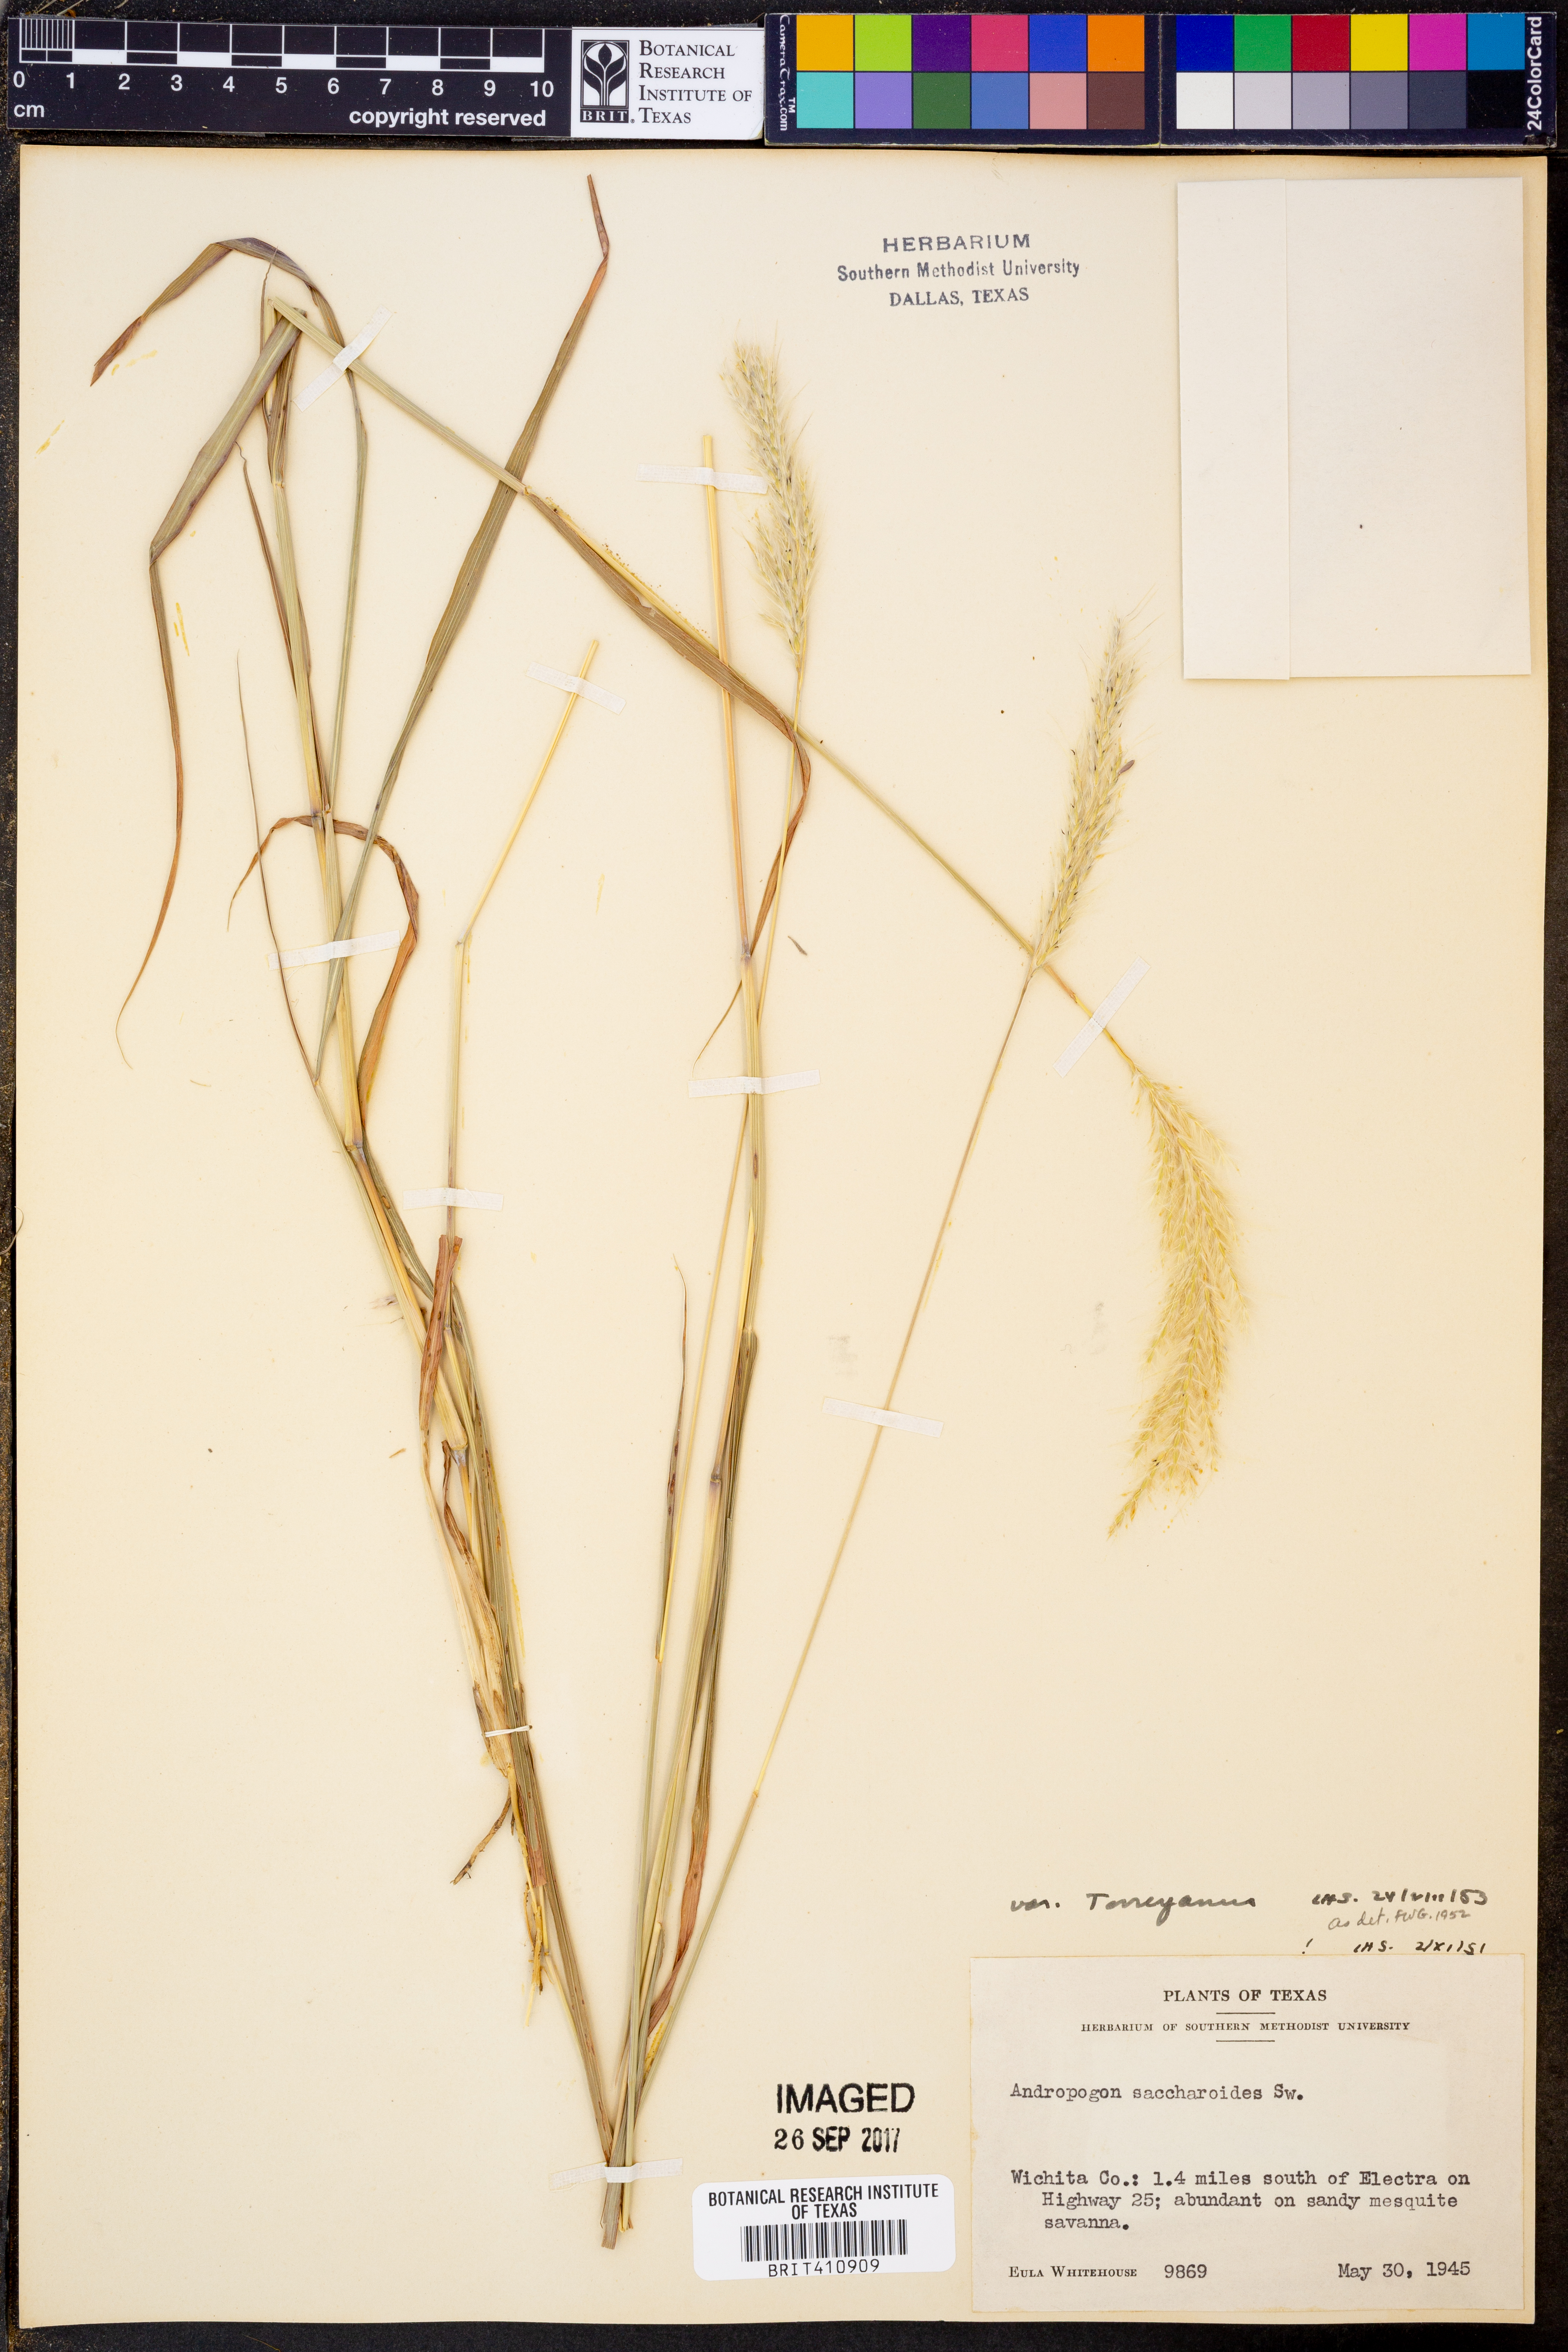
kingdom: Plantae
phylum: Tracheophyta
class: Liliopsida
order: Poales
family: Poaceae
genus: Bothriochloa
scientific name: Bothriochloa saccharoides
